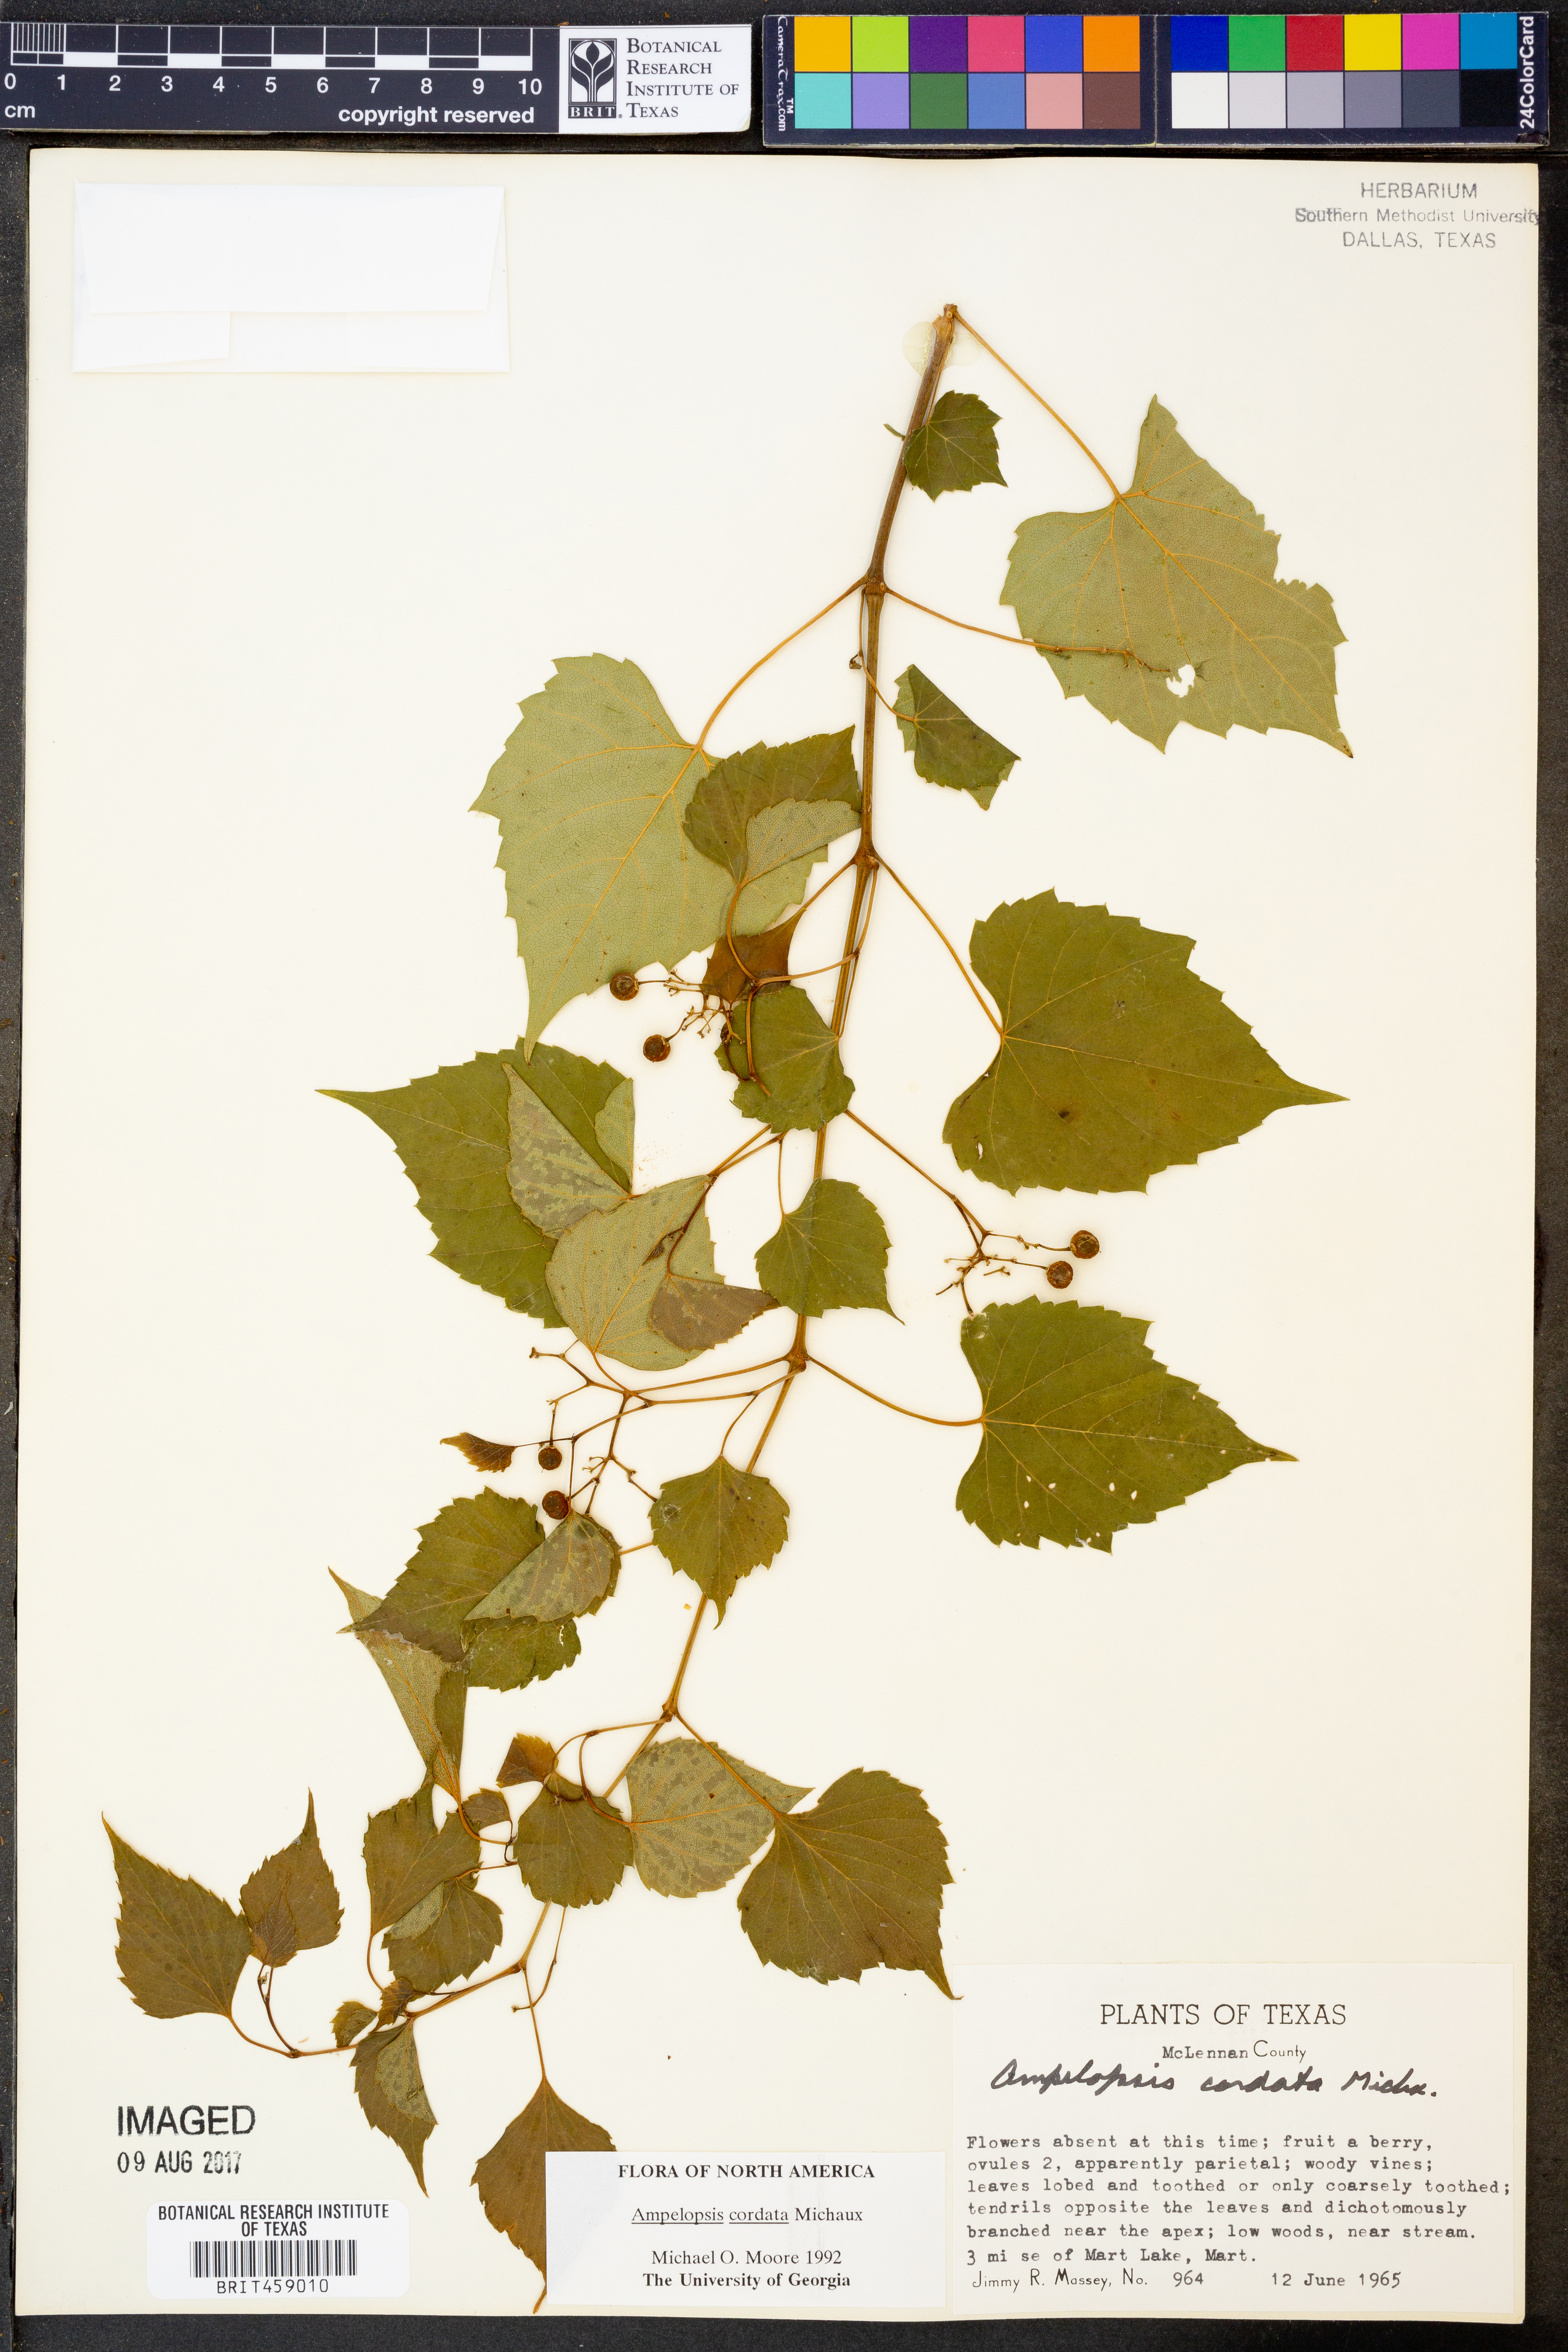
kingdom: Plantae
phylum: Tracheophyta
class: Magnoliopsida
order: Vitales
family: Vitaceae
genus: Ampelopsis
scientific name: Ampelopsis cordata
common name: Heart-leaf ampelopsis
